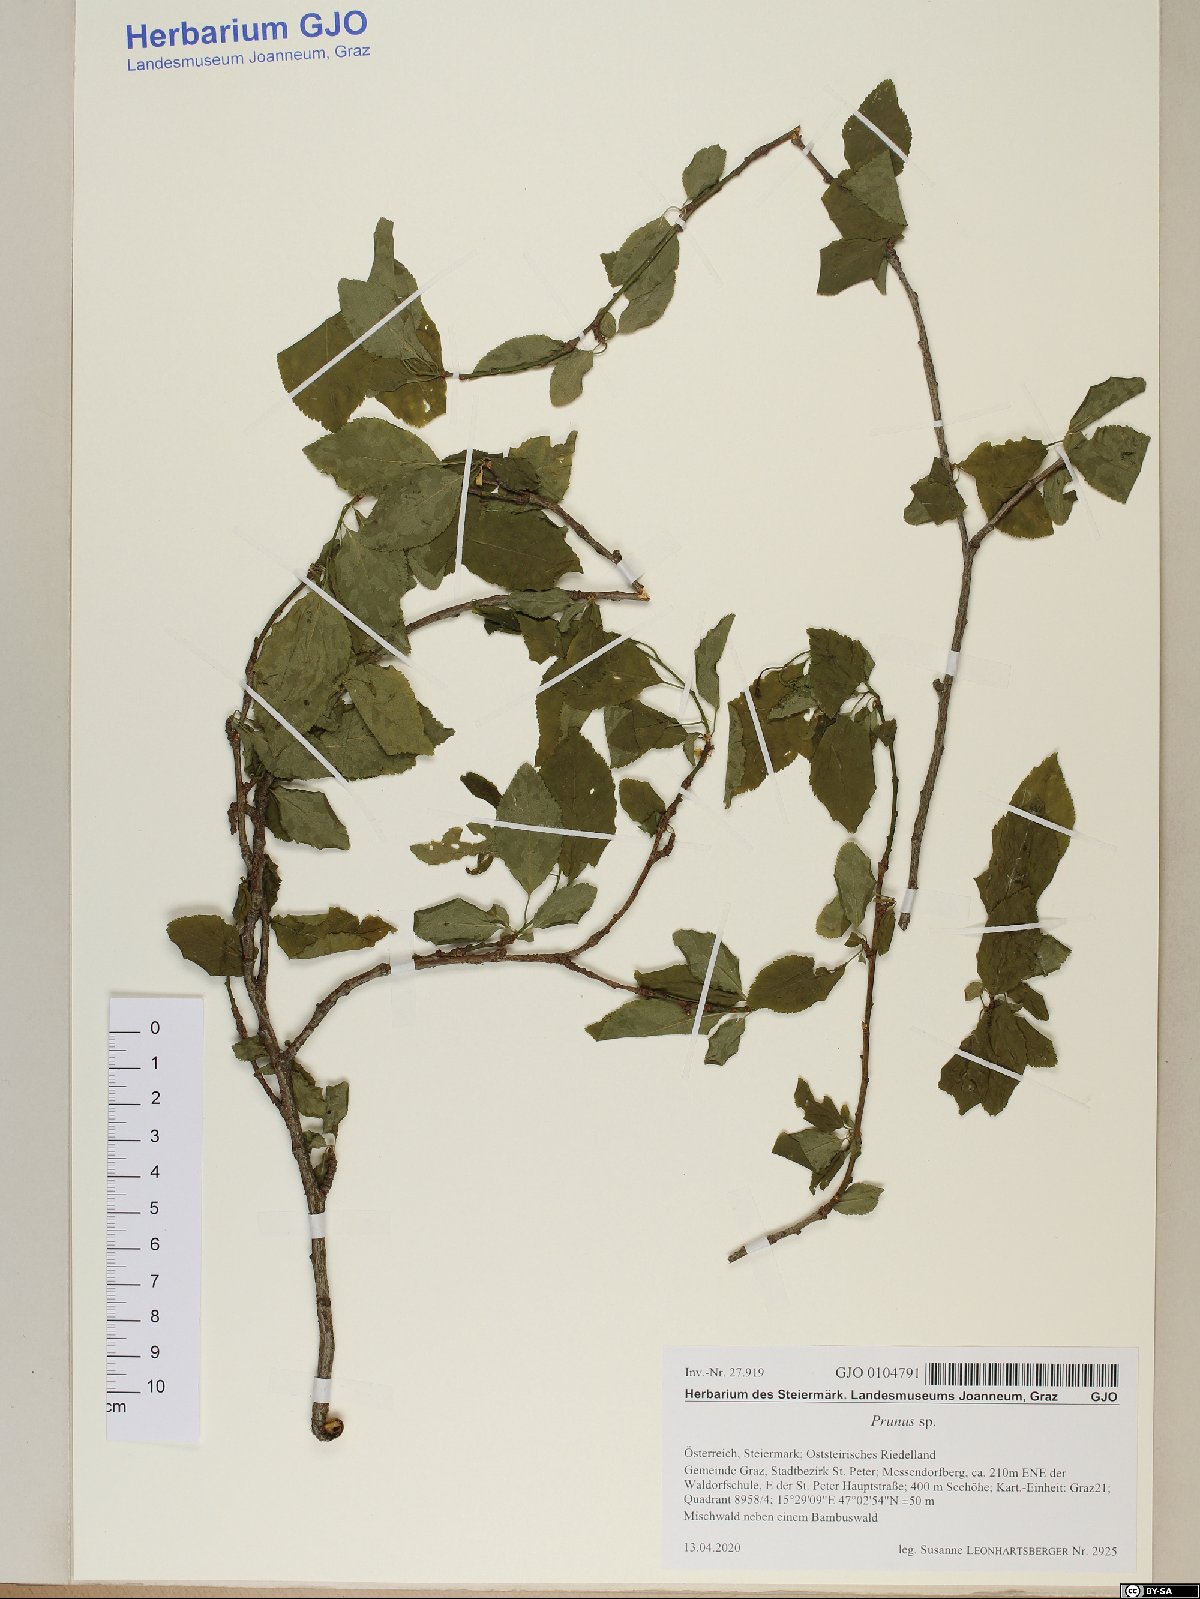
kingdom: Plantae
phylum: Tracheophyta
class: Magnoliopsida
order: Rosales
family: Rosaceae
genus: Prunus
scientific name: Prunus
